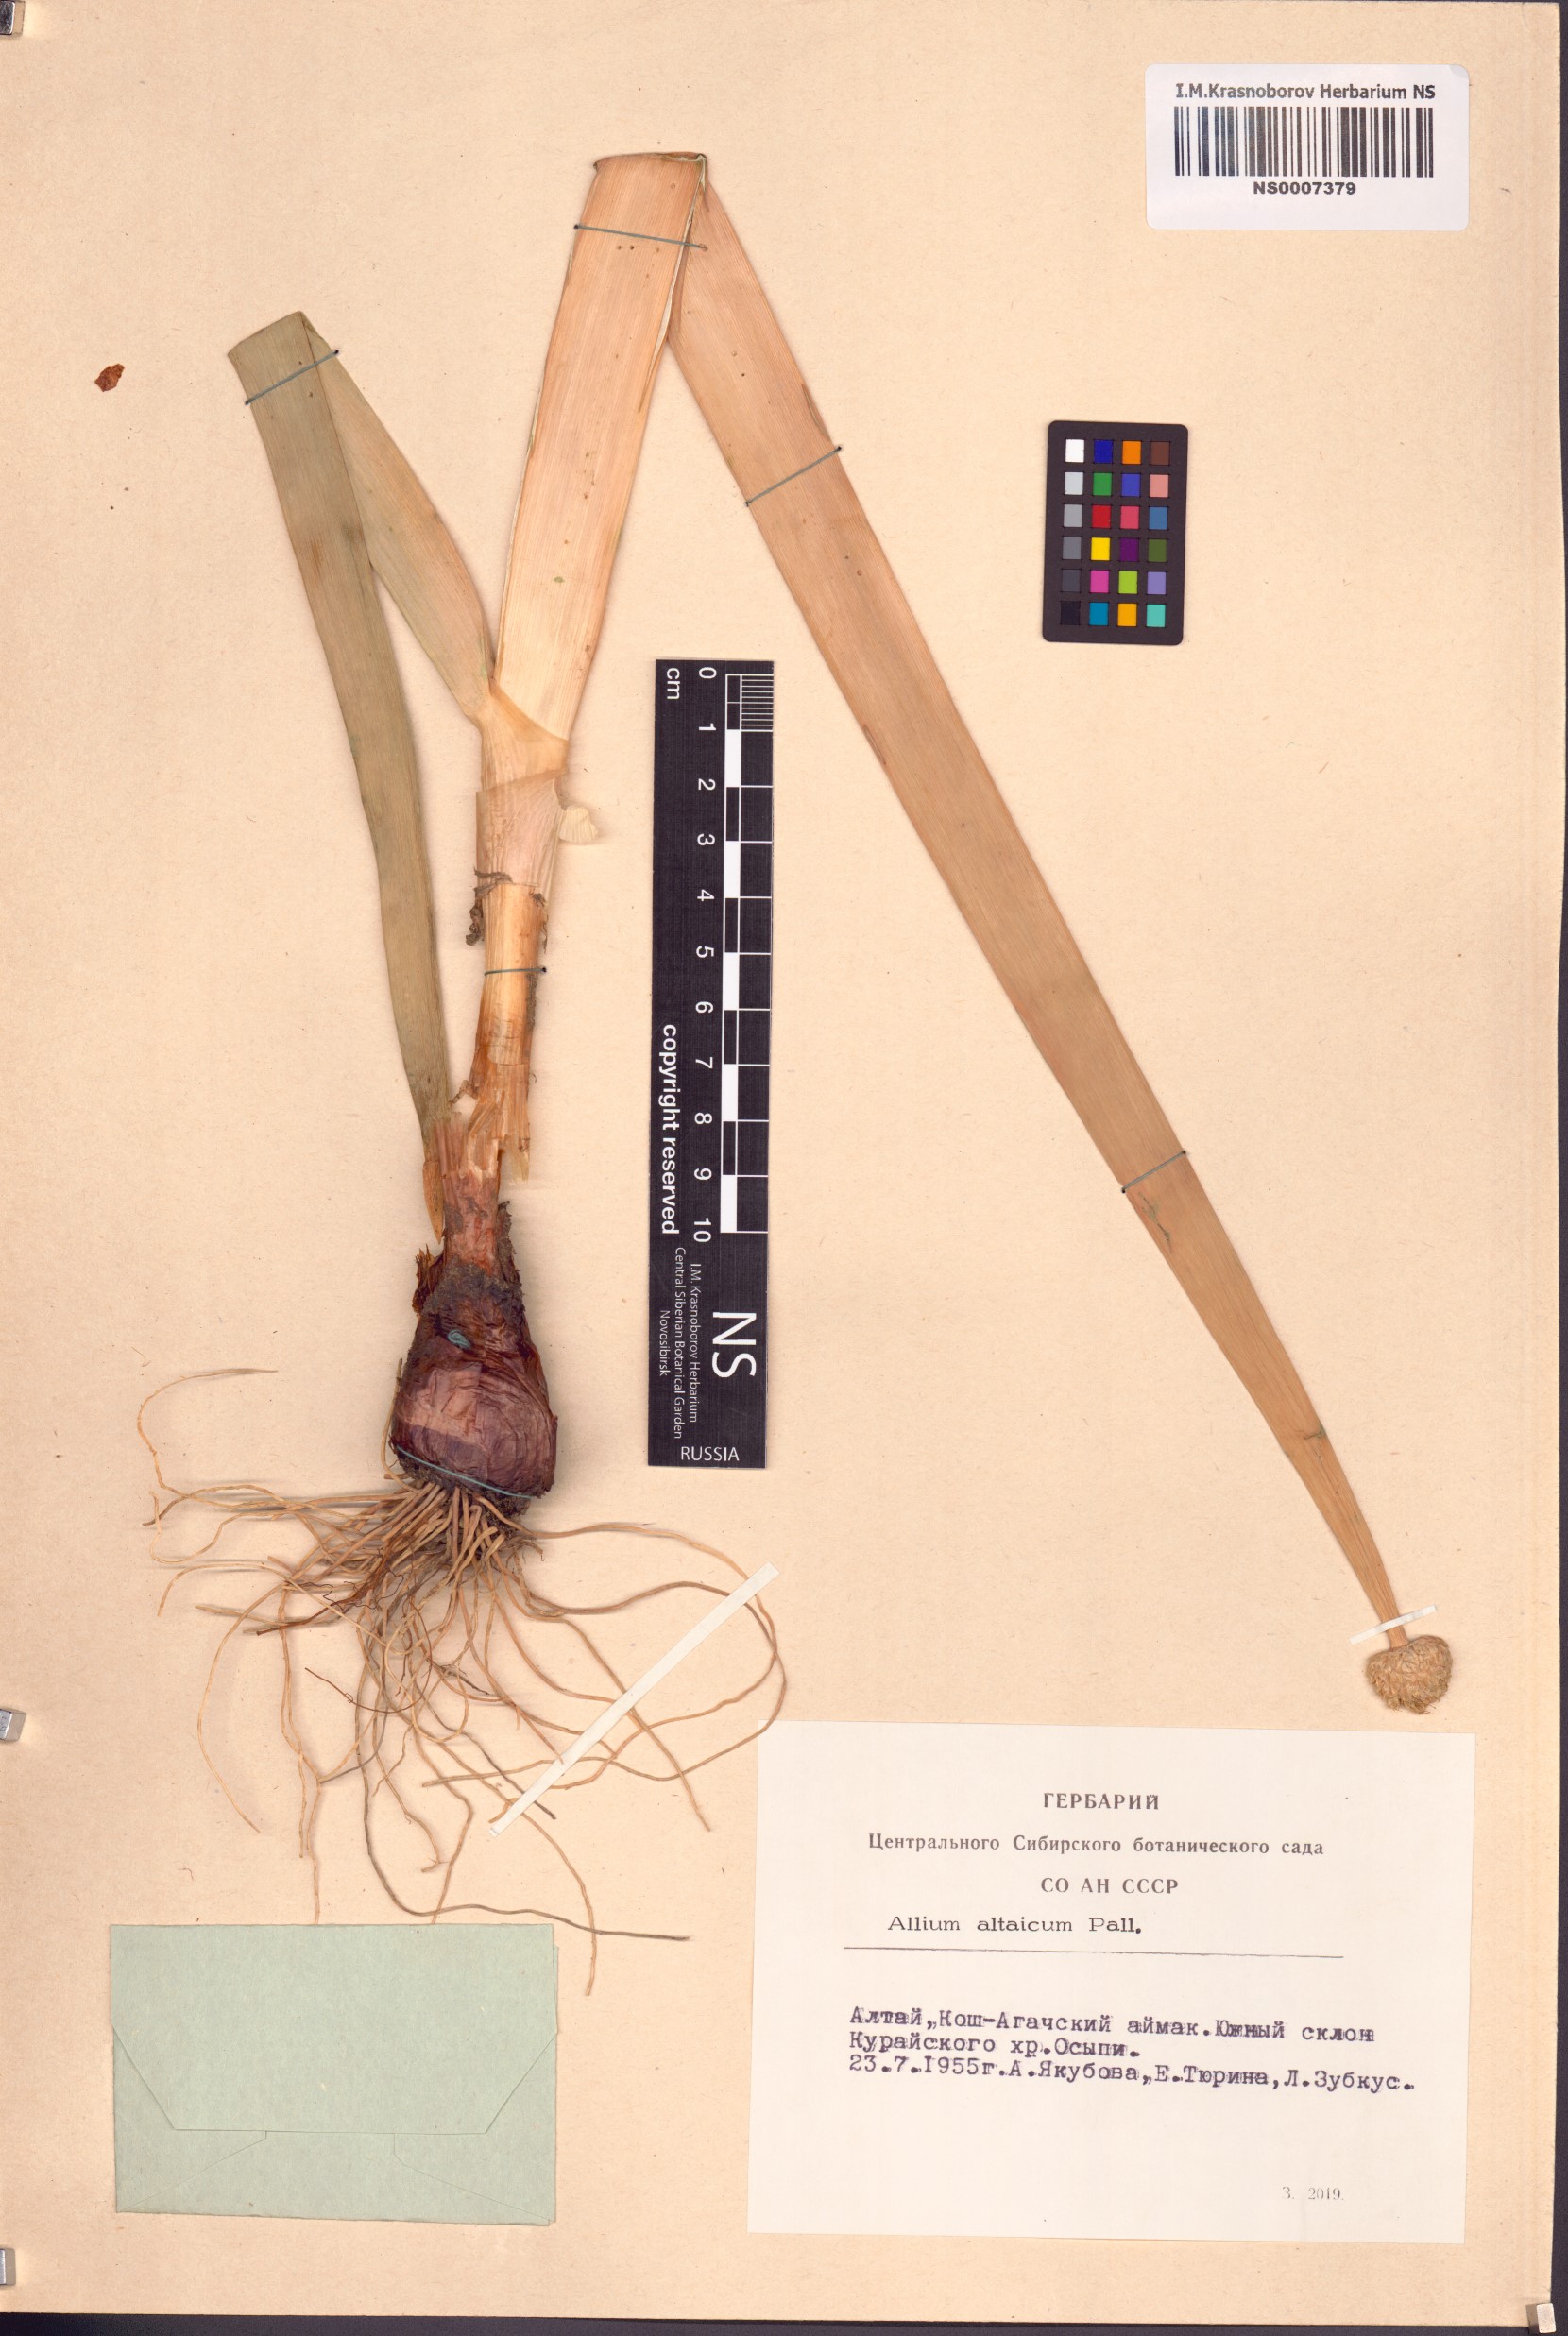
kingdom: Plantae
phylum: Tracheophyta
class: Liliopsida
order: Asparagales
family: Amaryllidaceae
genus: Allium
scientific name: Allium altaicum
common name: Altai onion
